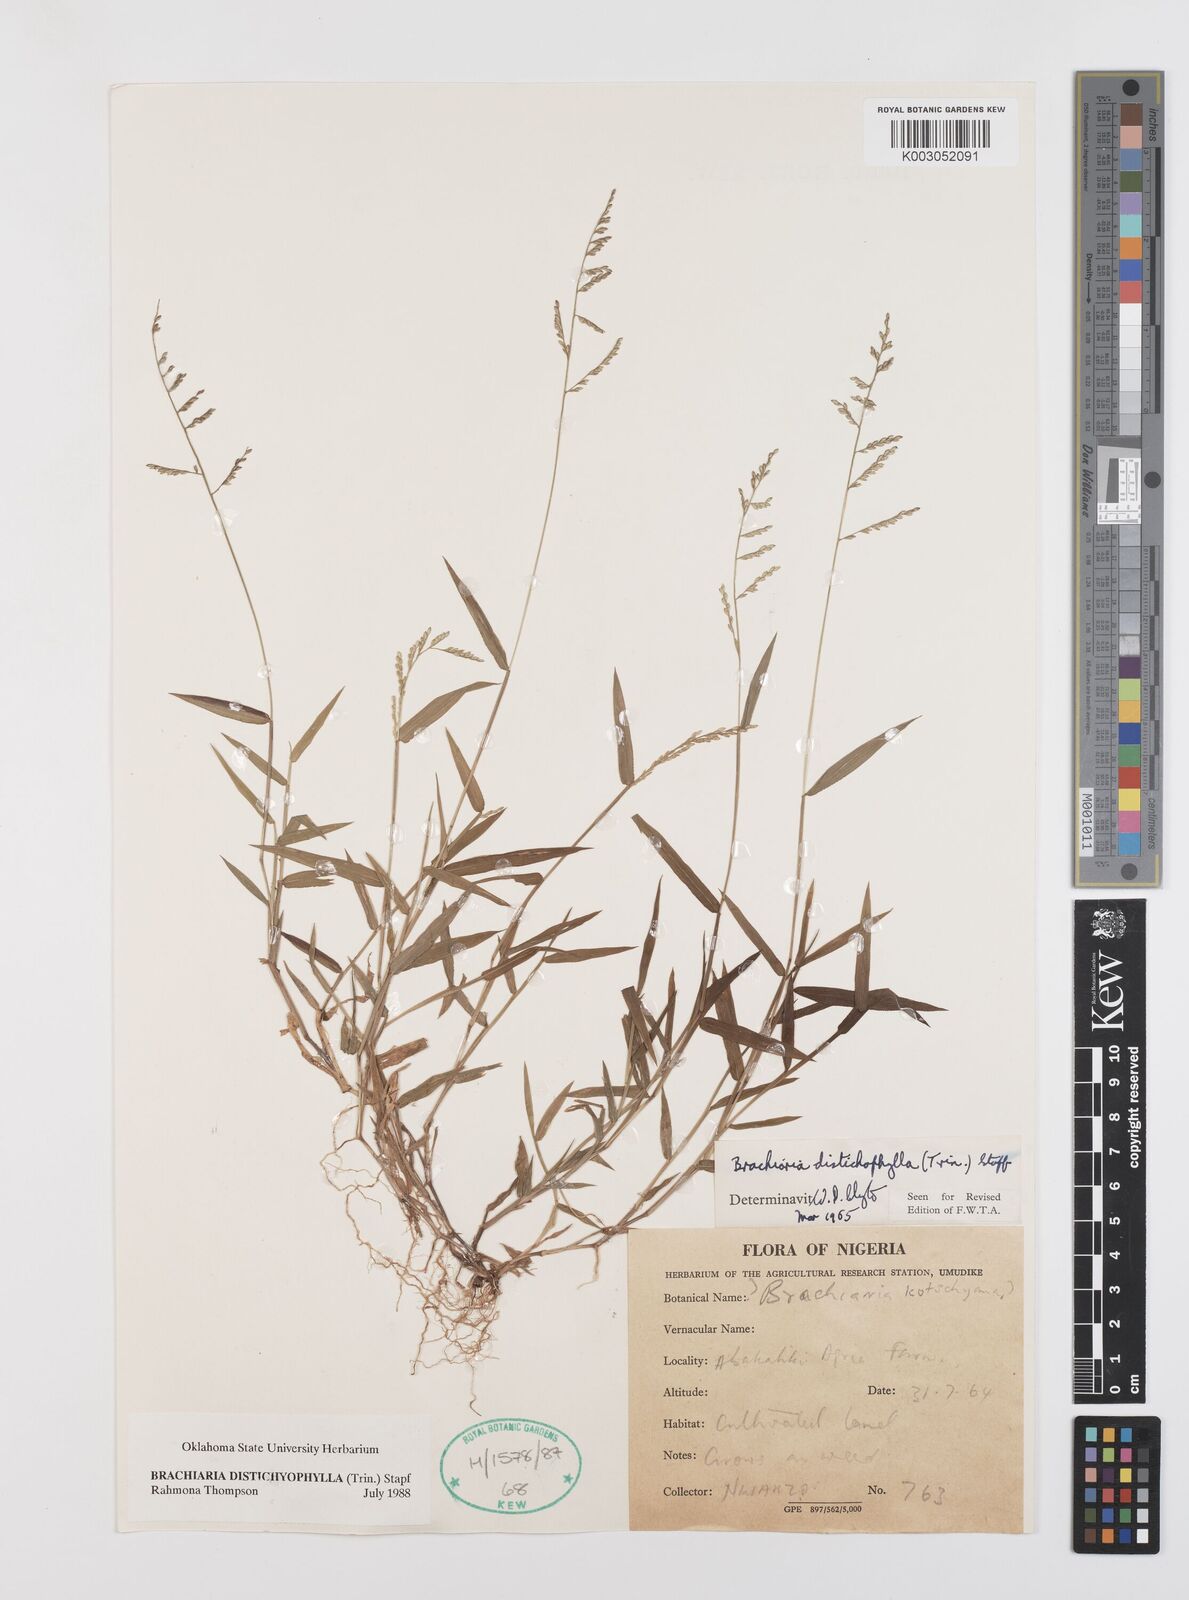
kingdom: Plantae
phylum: Tracheophyta
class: Liliopsida
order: Poales
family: Poaceae
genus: Urochloa
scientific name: Urochloa villosa
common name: Hairy signalgrass
